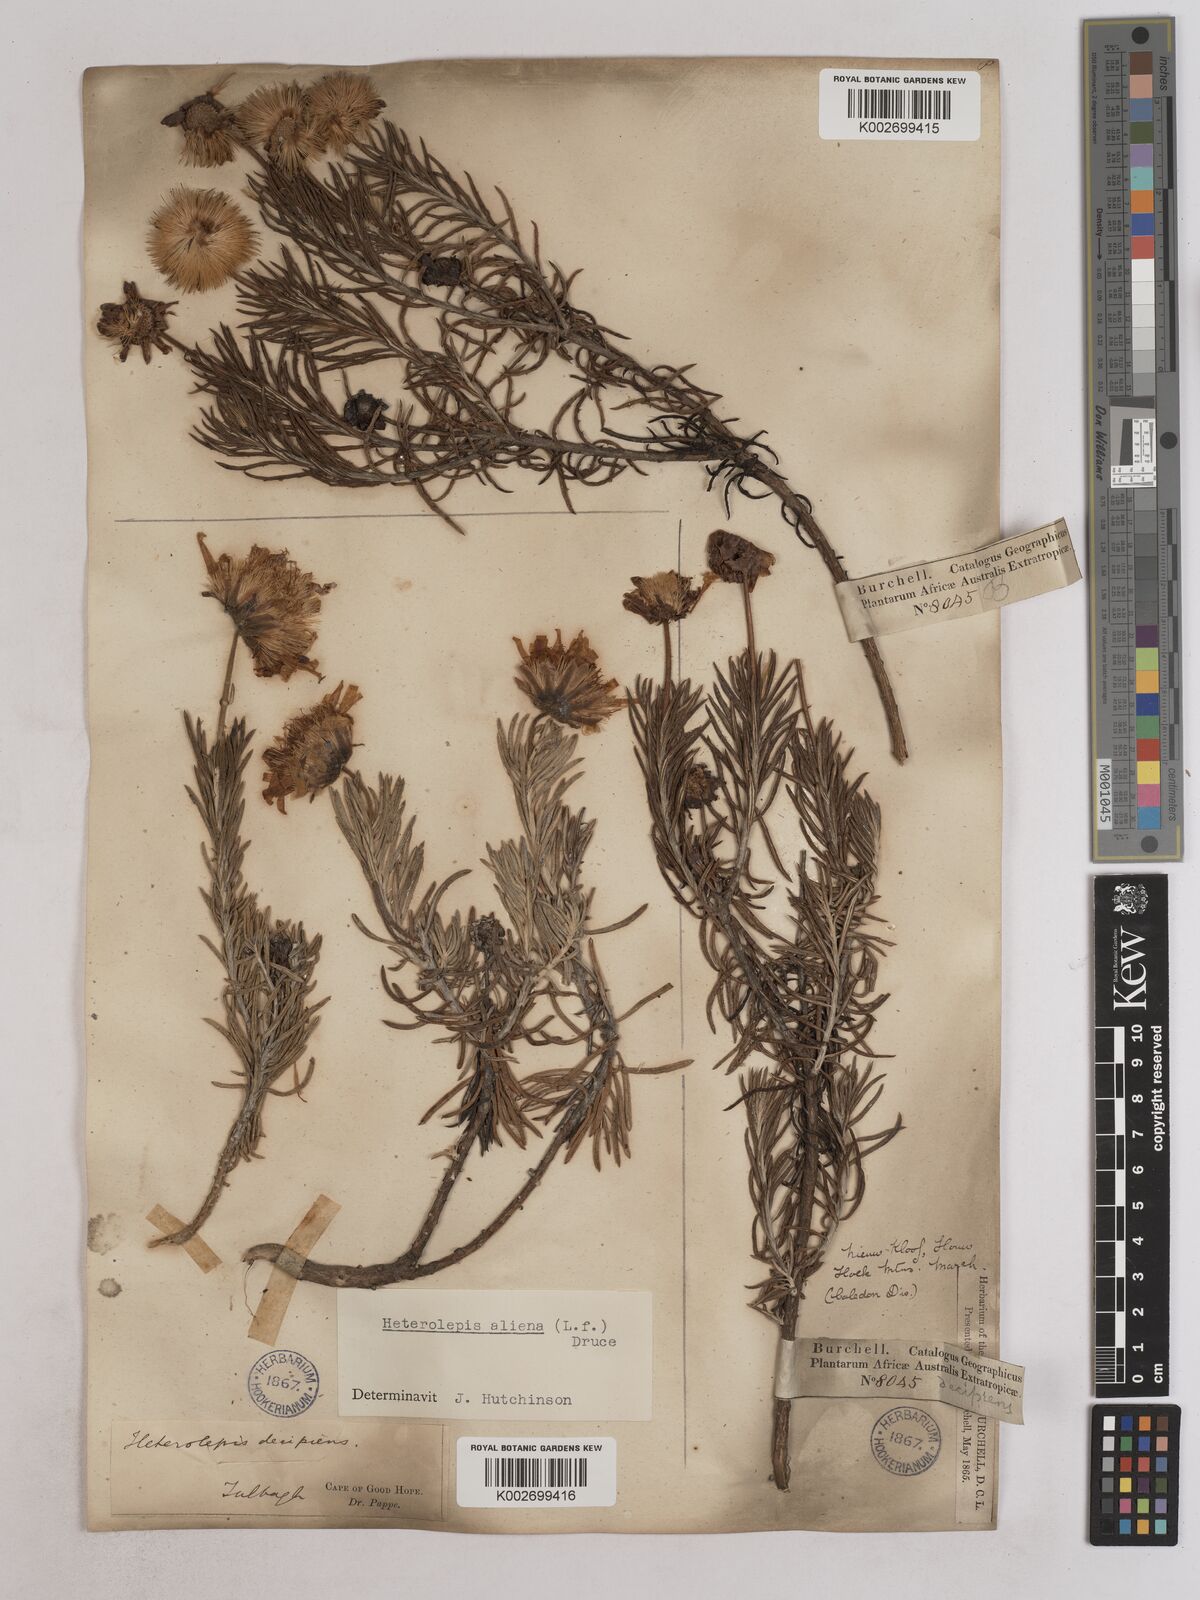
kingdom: Plantae
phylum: Tracheophyta
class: Magnoliopsida
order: Asterales
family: Asteraceae
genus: Heterolepis
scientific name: Heterolepis aliena
